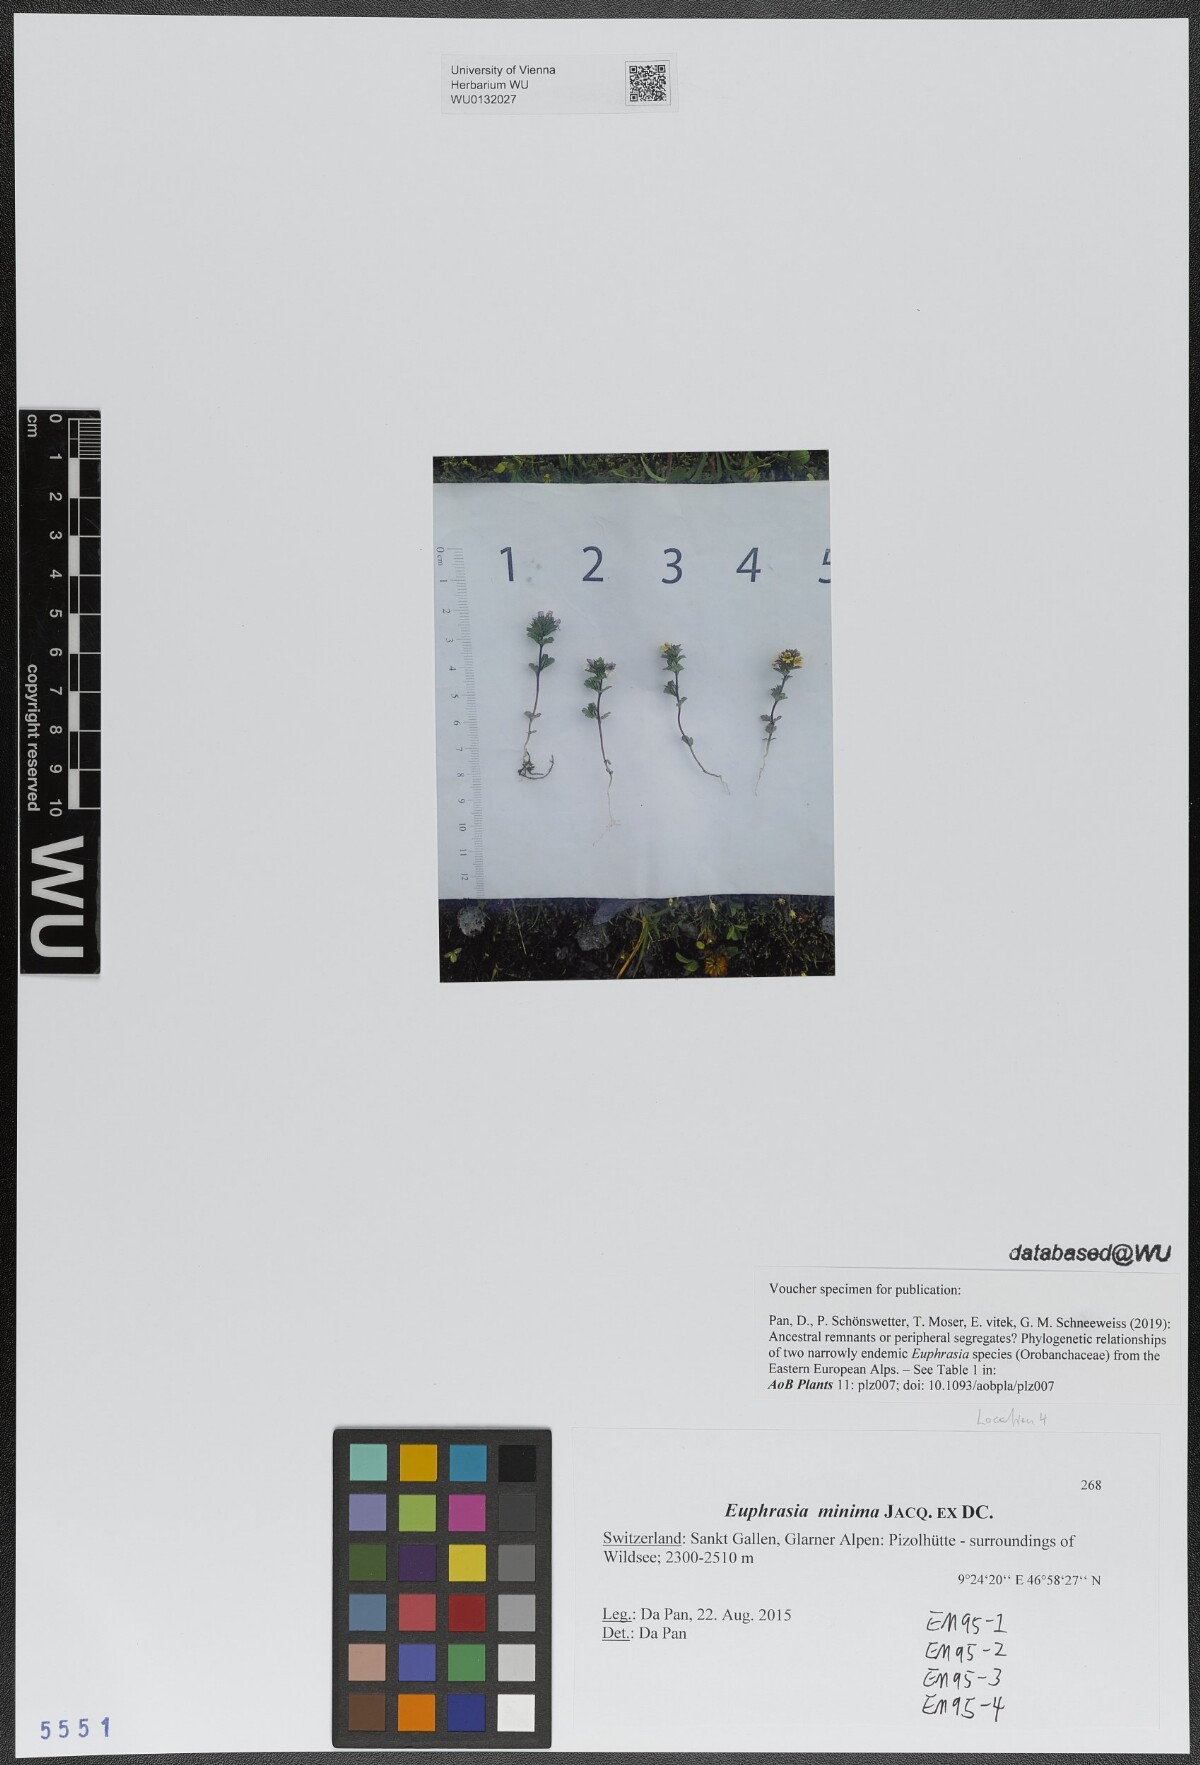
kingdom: Plantae
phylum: Tracheophyta
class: Magnoliopsida
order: Lamiales
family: Orobanchaceae
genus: Euphrasia
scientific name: Euphrasia minima
